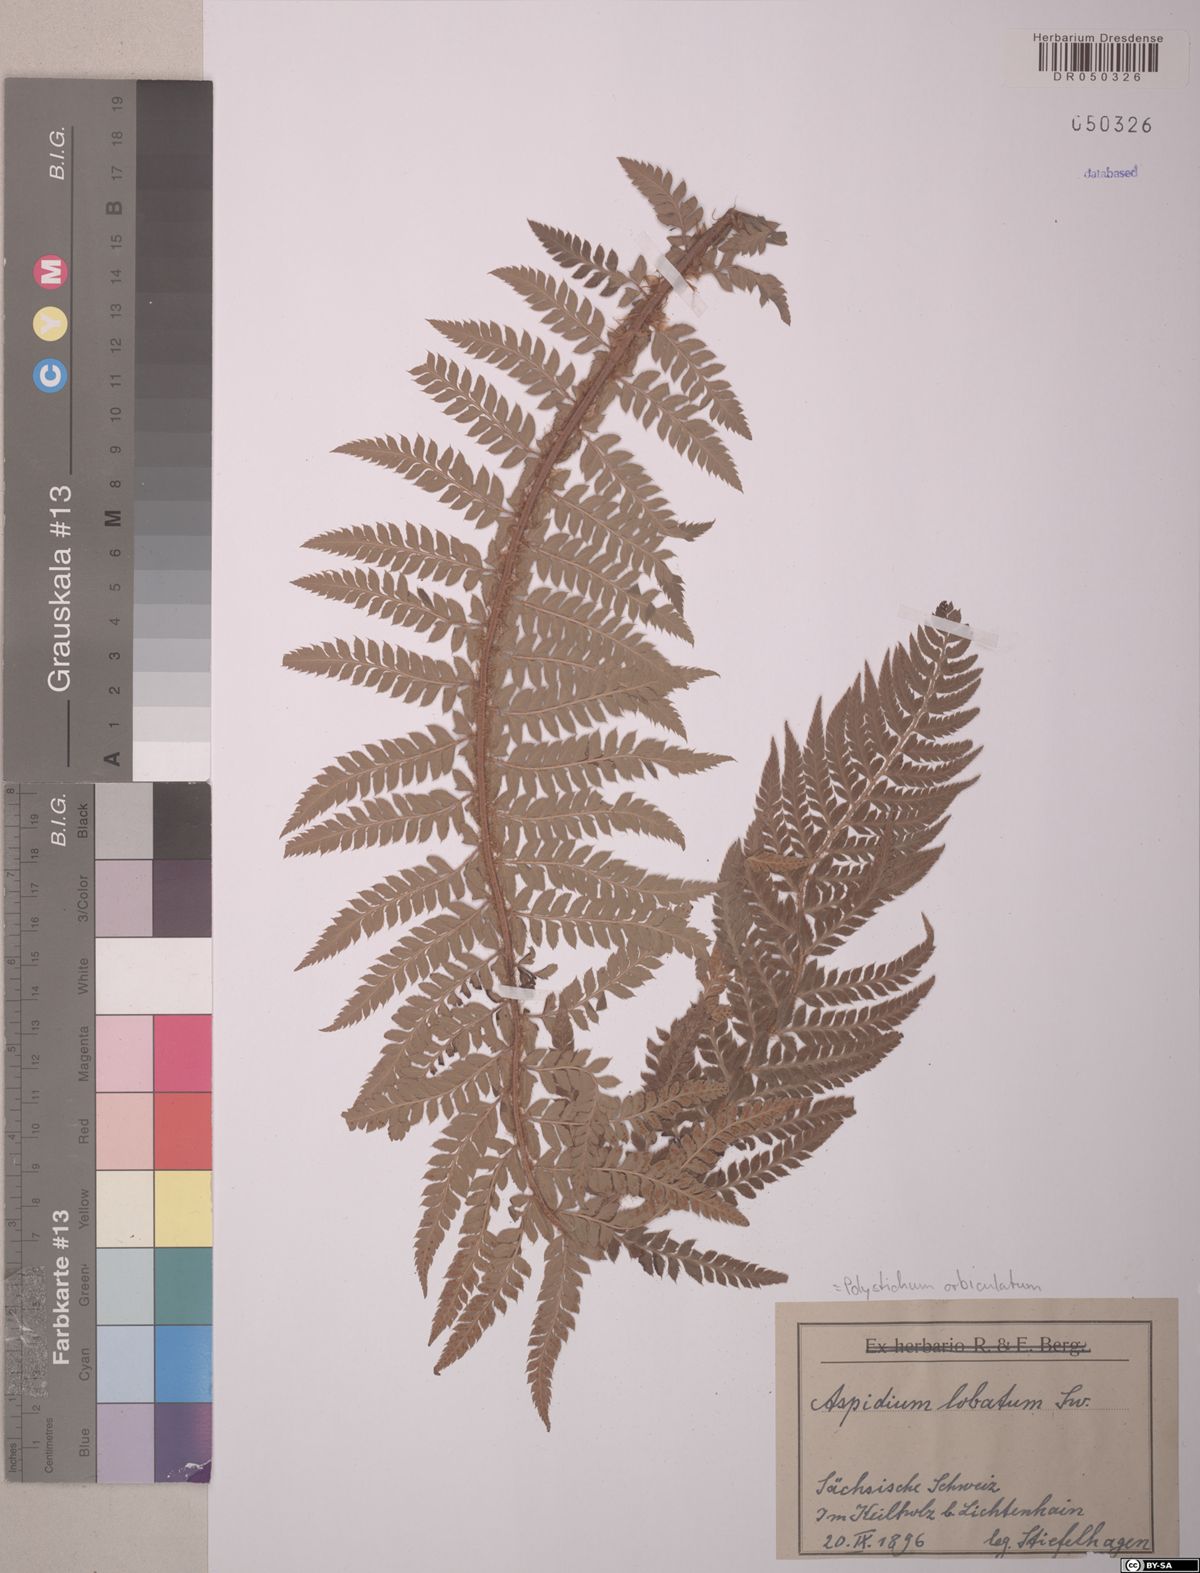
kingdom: Plantae
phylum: Tracheophyta
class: Polypodiopsida
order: Polypodiales
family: Dryopteridaceae
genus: Polystichum
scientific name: Polystichum aculeatum
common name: Hard shield-fern
